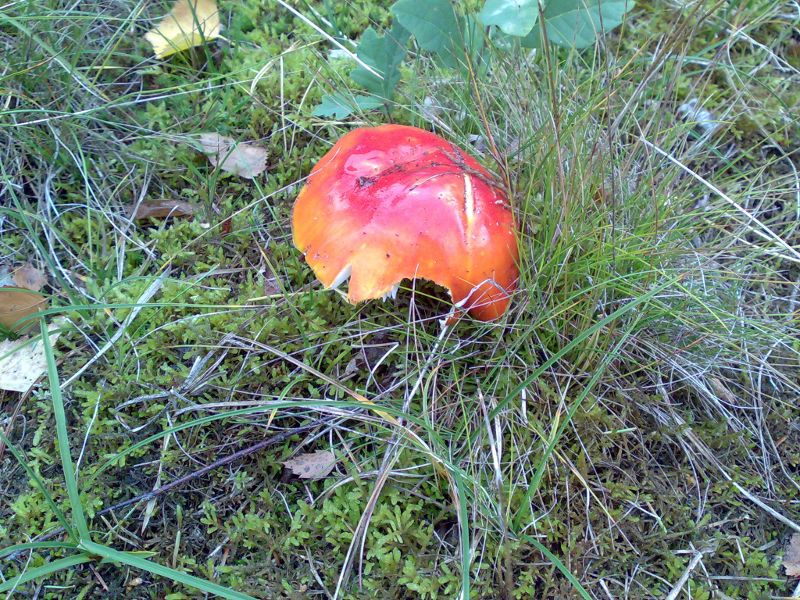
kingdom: Fungi
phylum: Basidiomycota
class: Agaricomycetes
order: Agaricales
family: Amanitaceae
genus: Amanita
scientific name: Amanita muscaria
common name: rød fluesvamp
